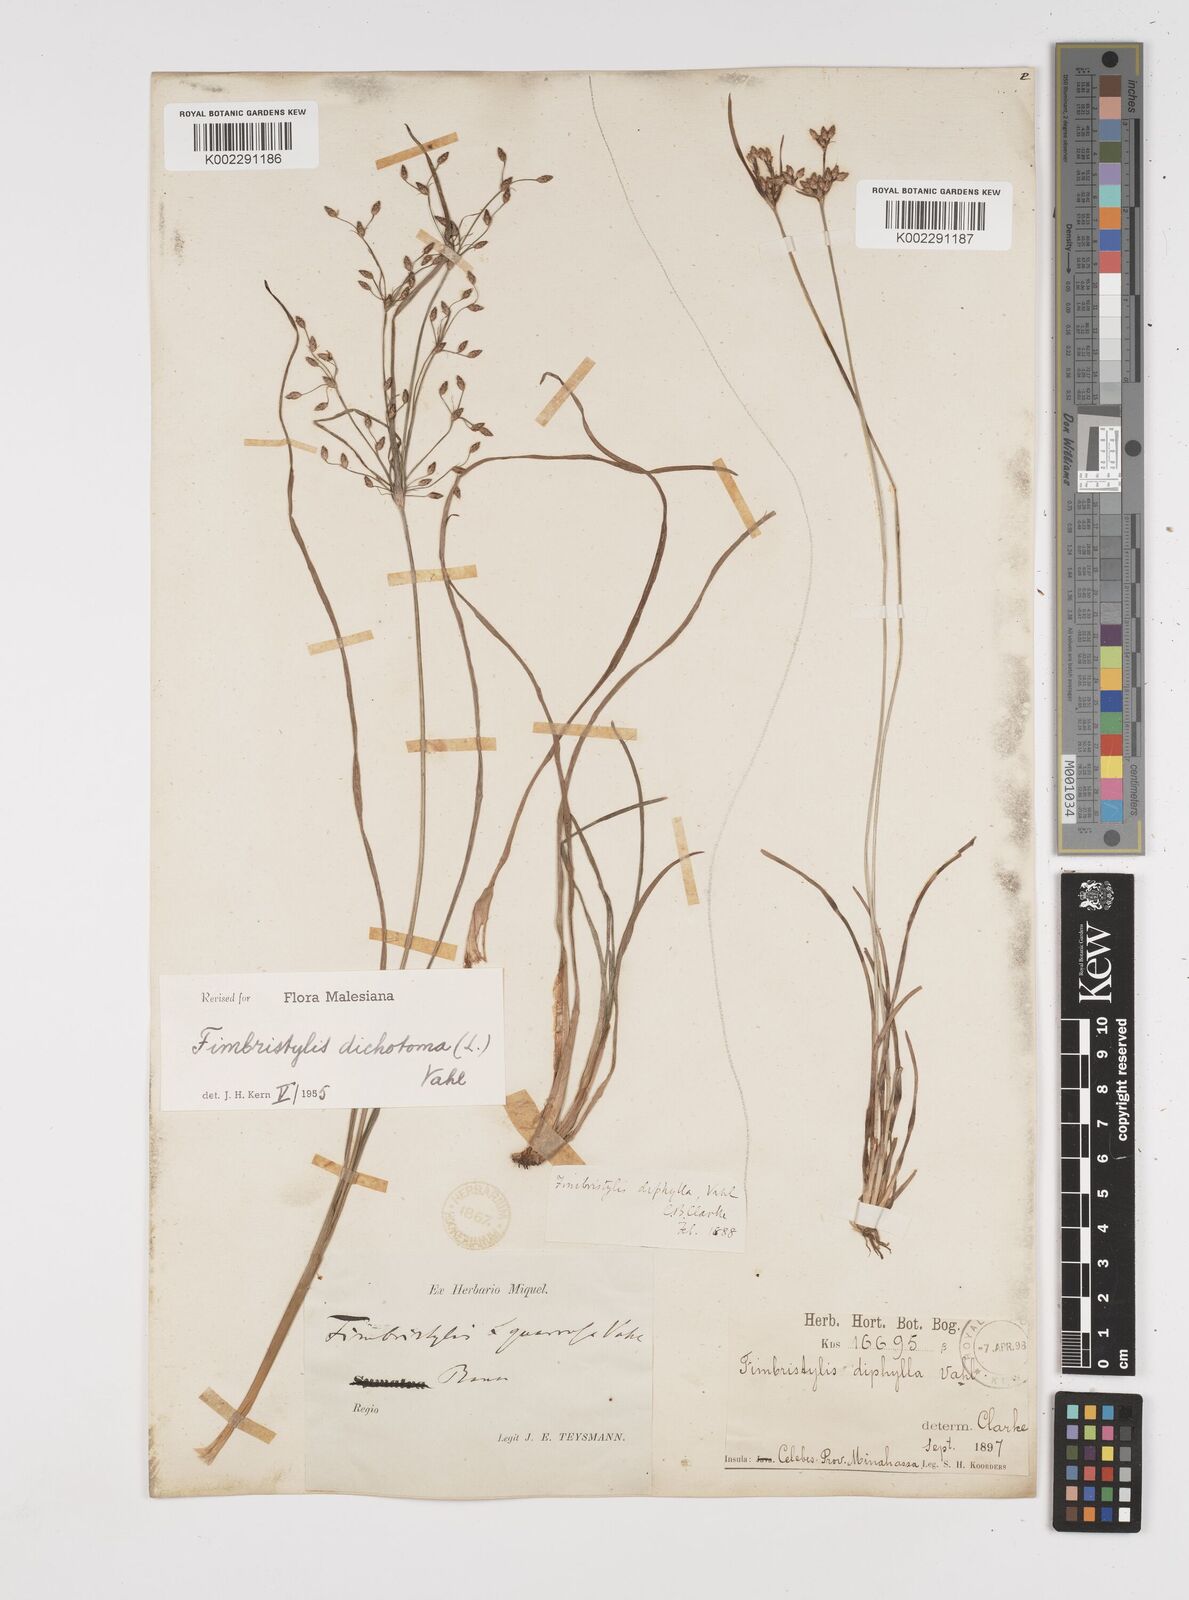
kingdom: Plantae
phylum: Tracheophyta
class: Liliopsida
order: Poales
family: Cyperaceae
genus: Fimbristylis
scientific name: Fimbristylis dichotoma
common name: Forked fimbry
